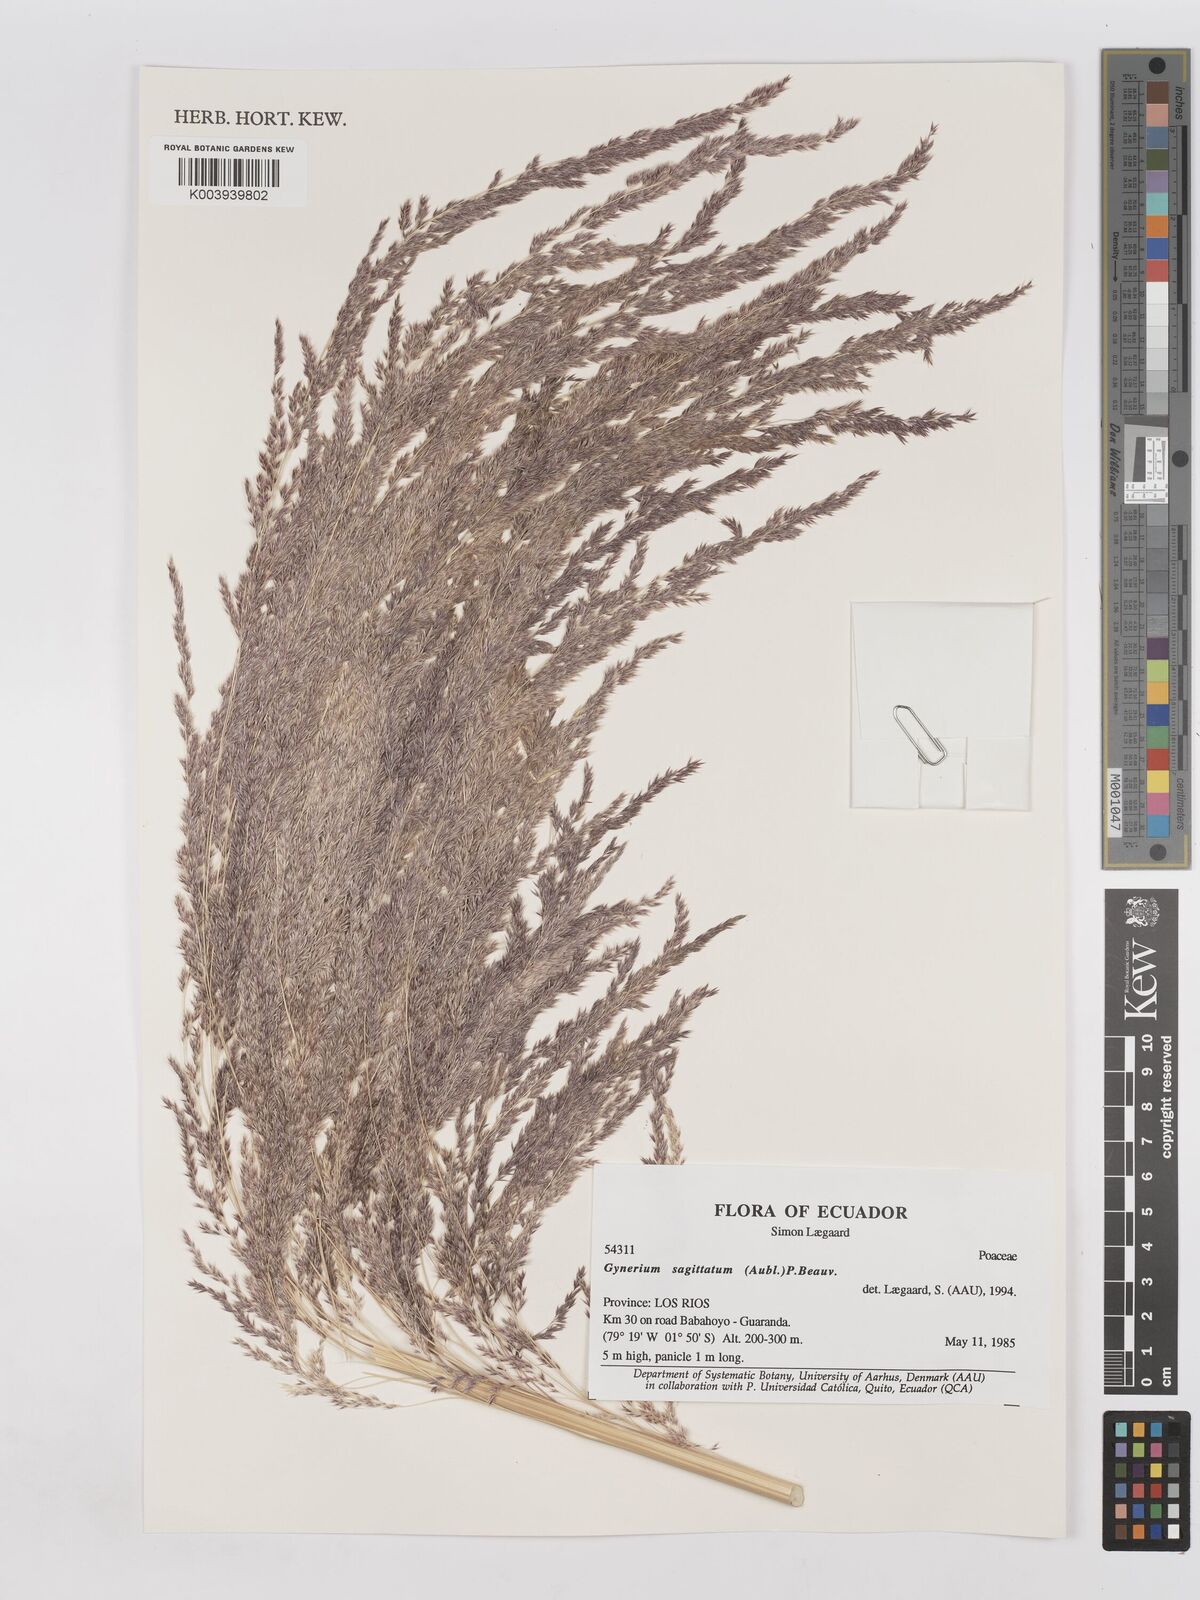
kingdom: Plantae
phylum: Tracheophyta
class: Liliopsida
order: Poales
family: Poaceae
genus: Gynerium
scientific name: Gynerium sagittatum
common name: Wild cane
